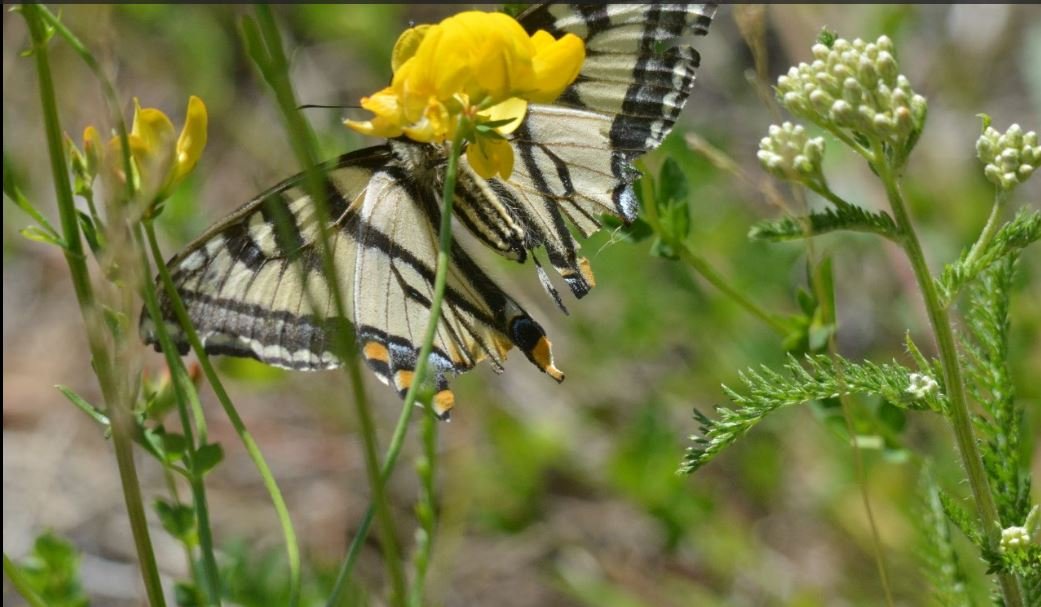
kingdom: Animalia
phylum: Arthropoda
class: Insecta
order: Lepidoptera
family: Papilionidae
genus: Pterourus
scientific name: Pterourus canadensis
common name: Canadian Tiger Swallowtail
